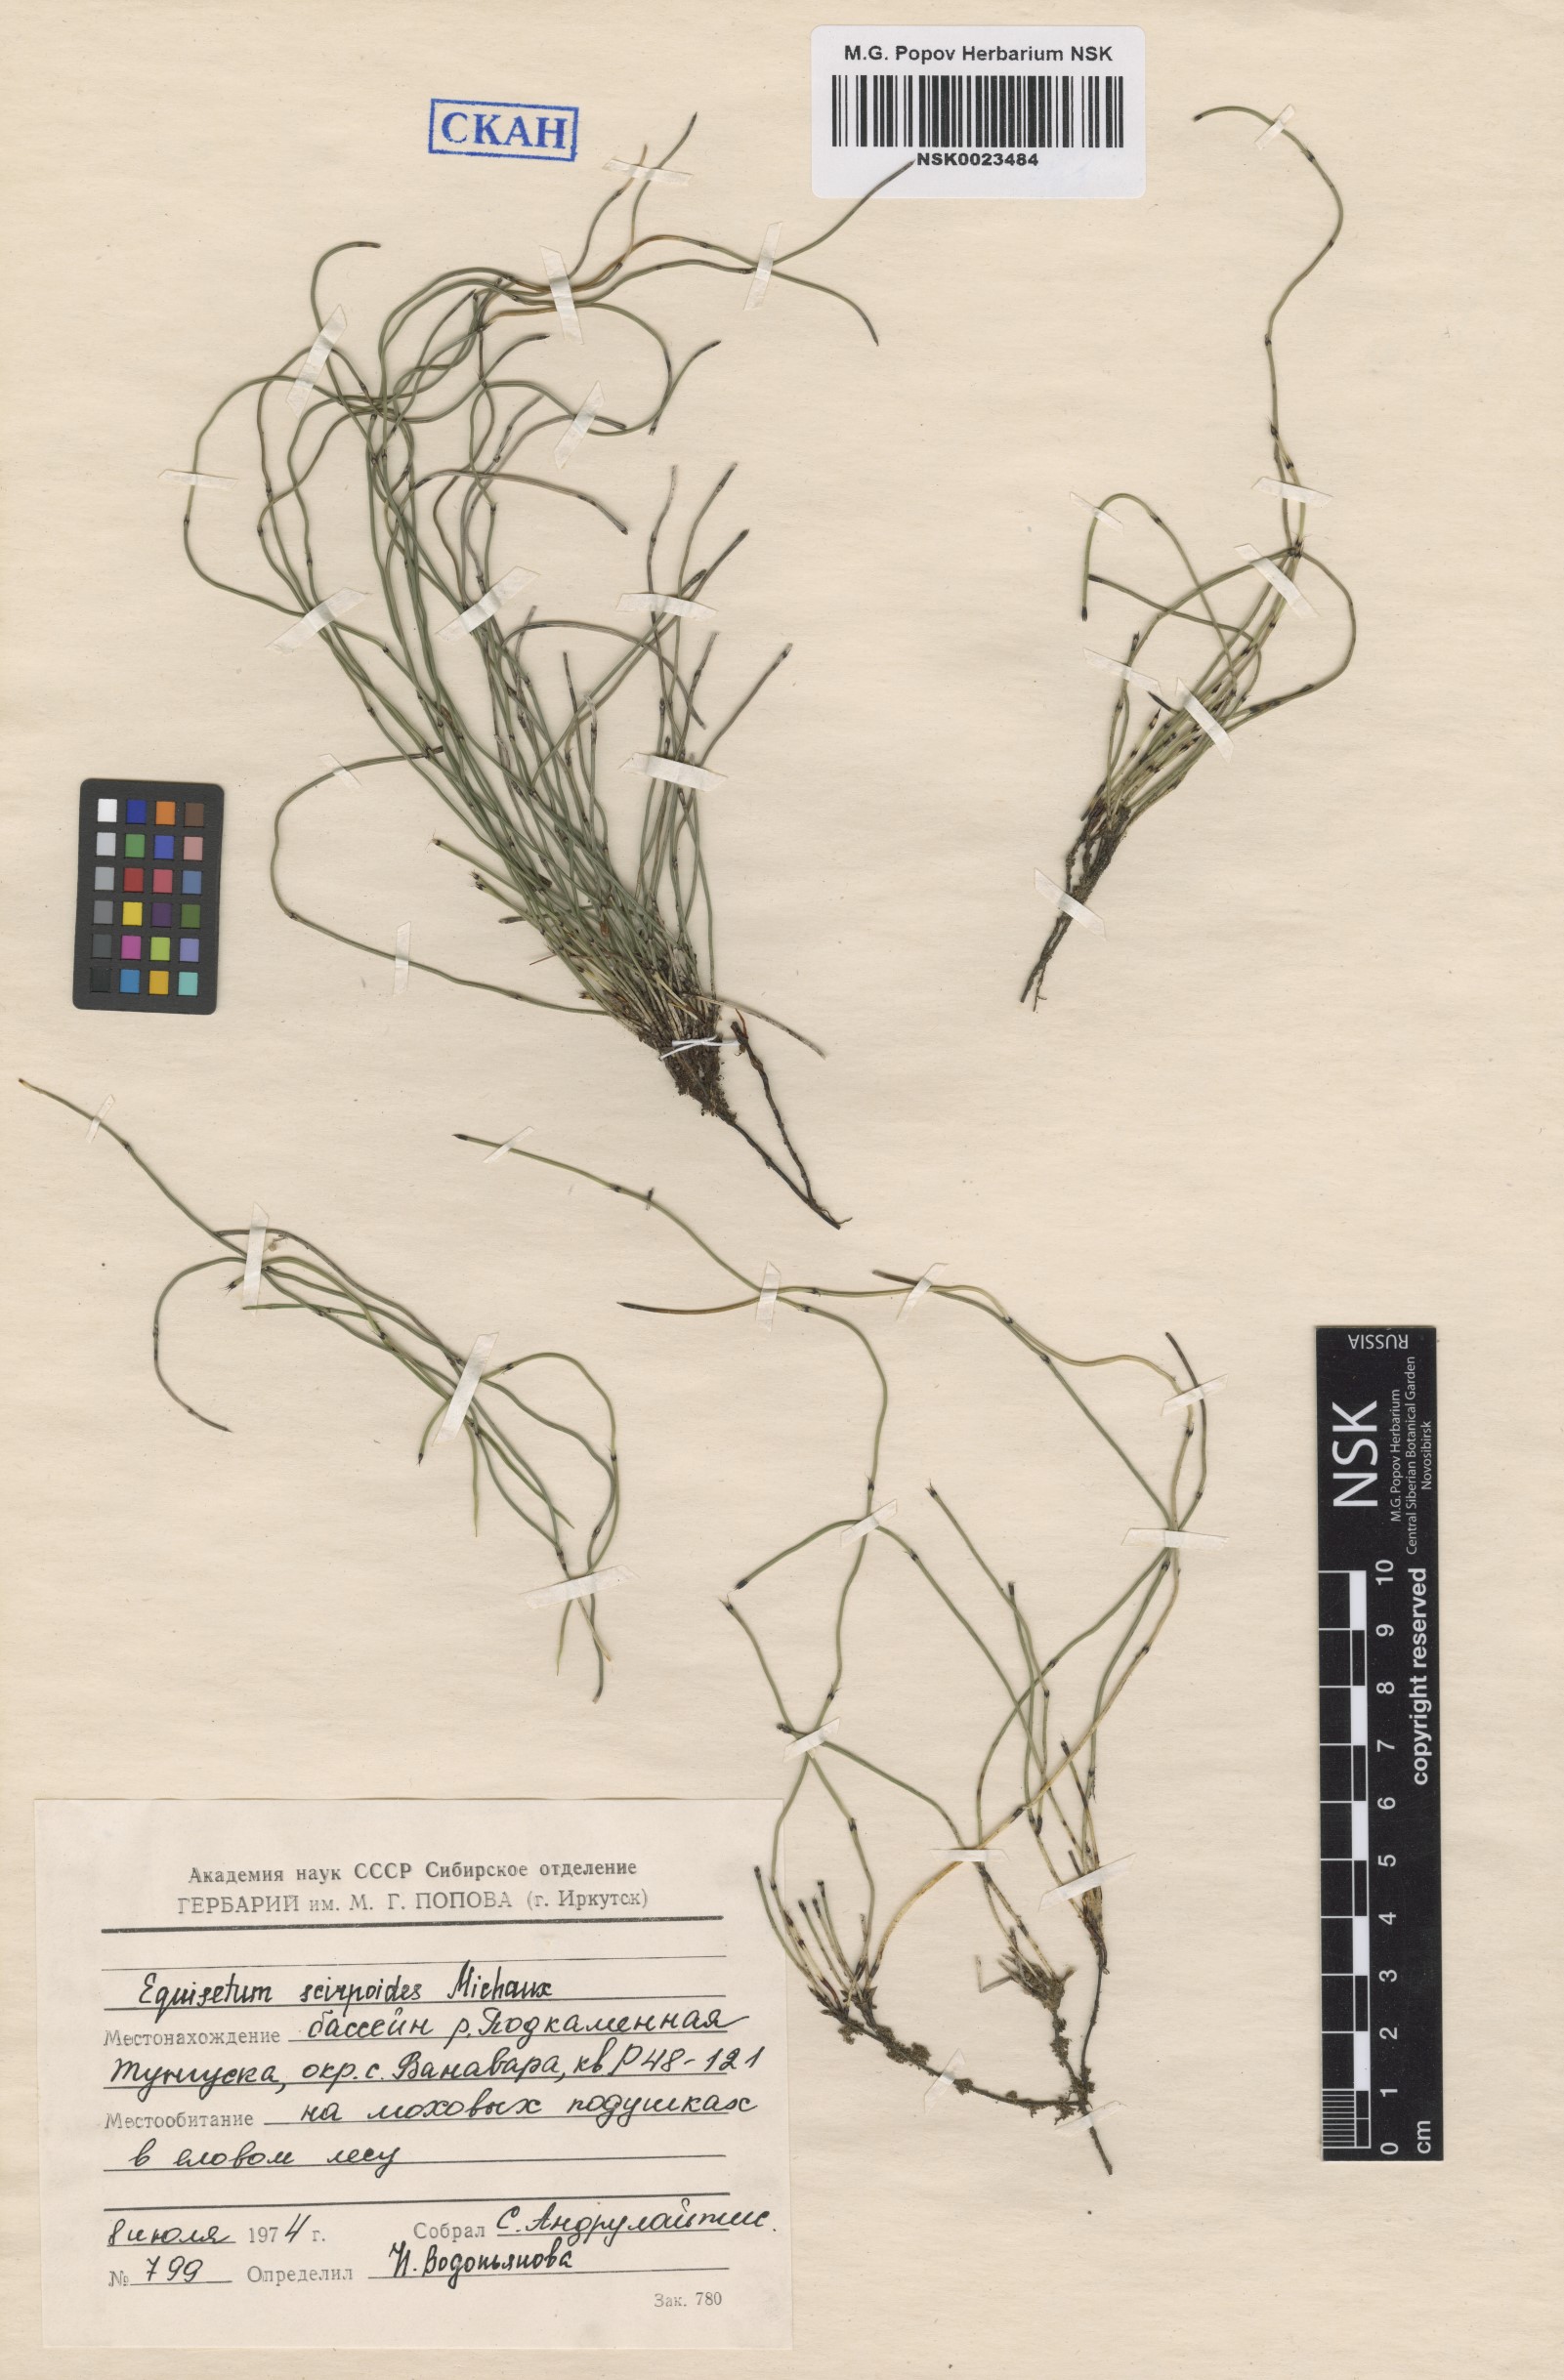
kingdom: Plantae
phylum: Tracheophyta
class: Polypodiopsida
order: Equisetales
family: Equisetaceae
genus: Equisetum
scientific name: Equisetum scirpoides
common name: Delicate horsetail
